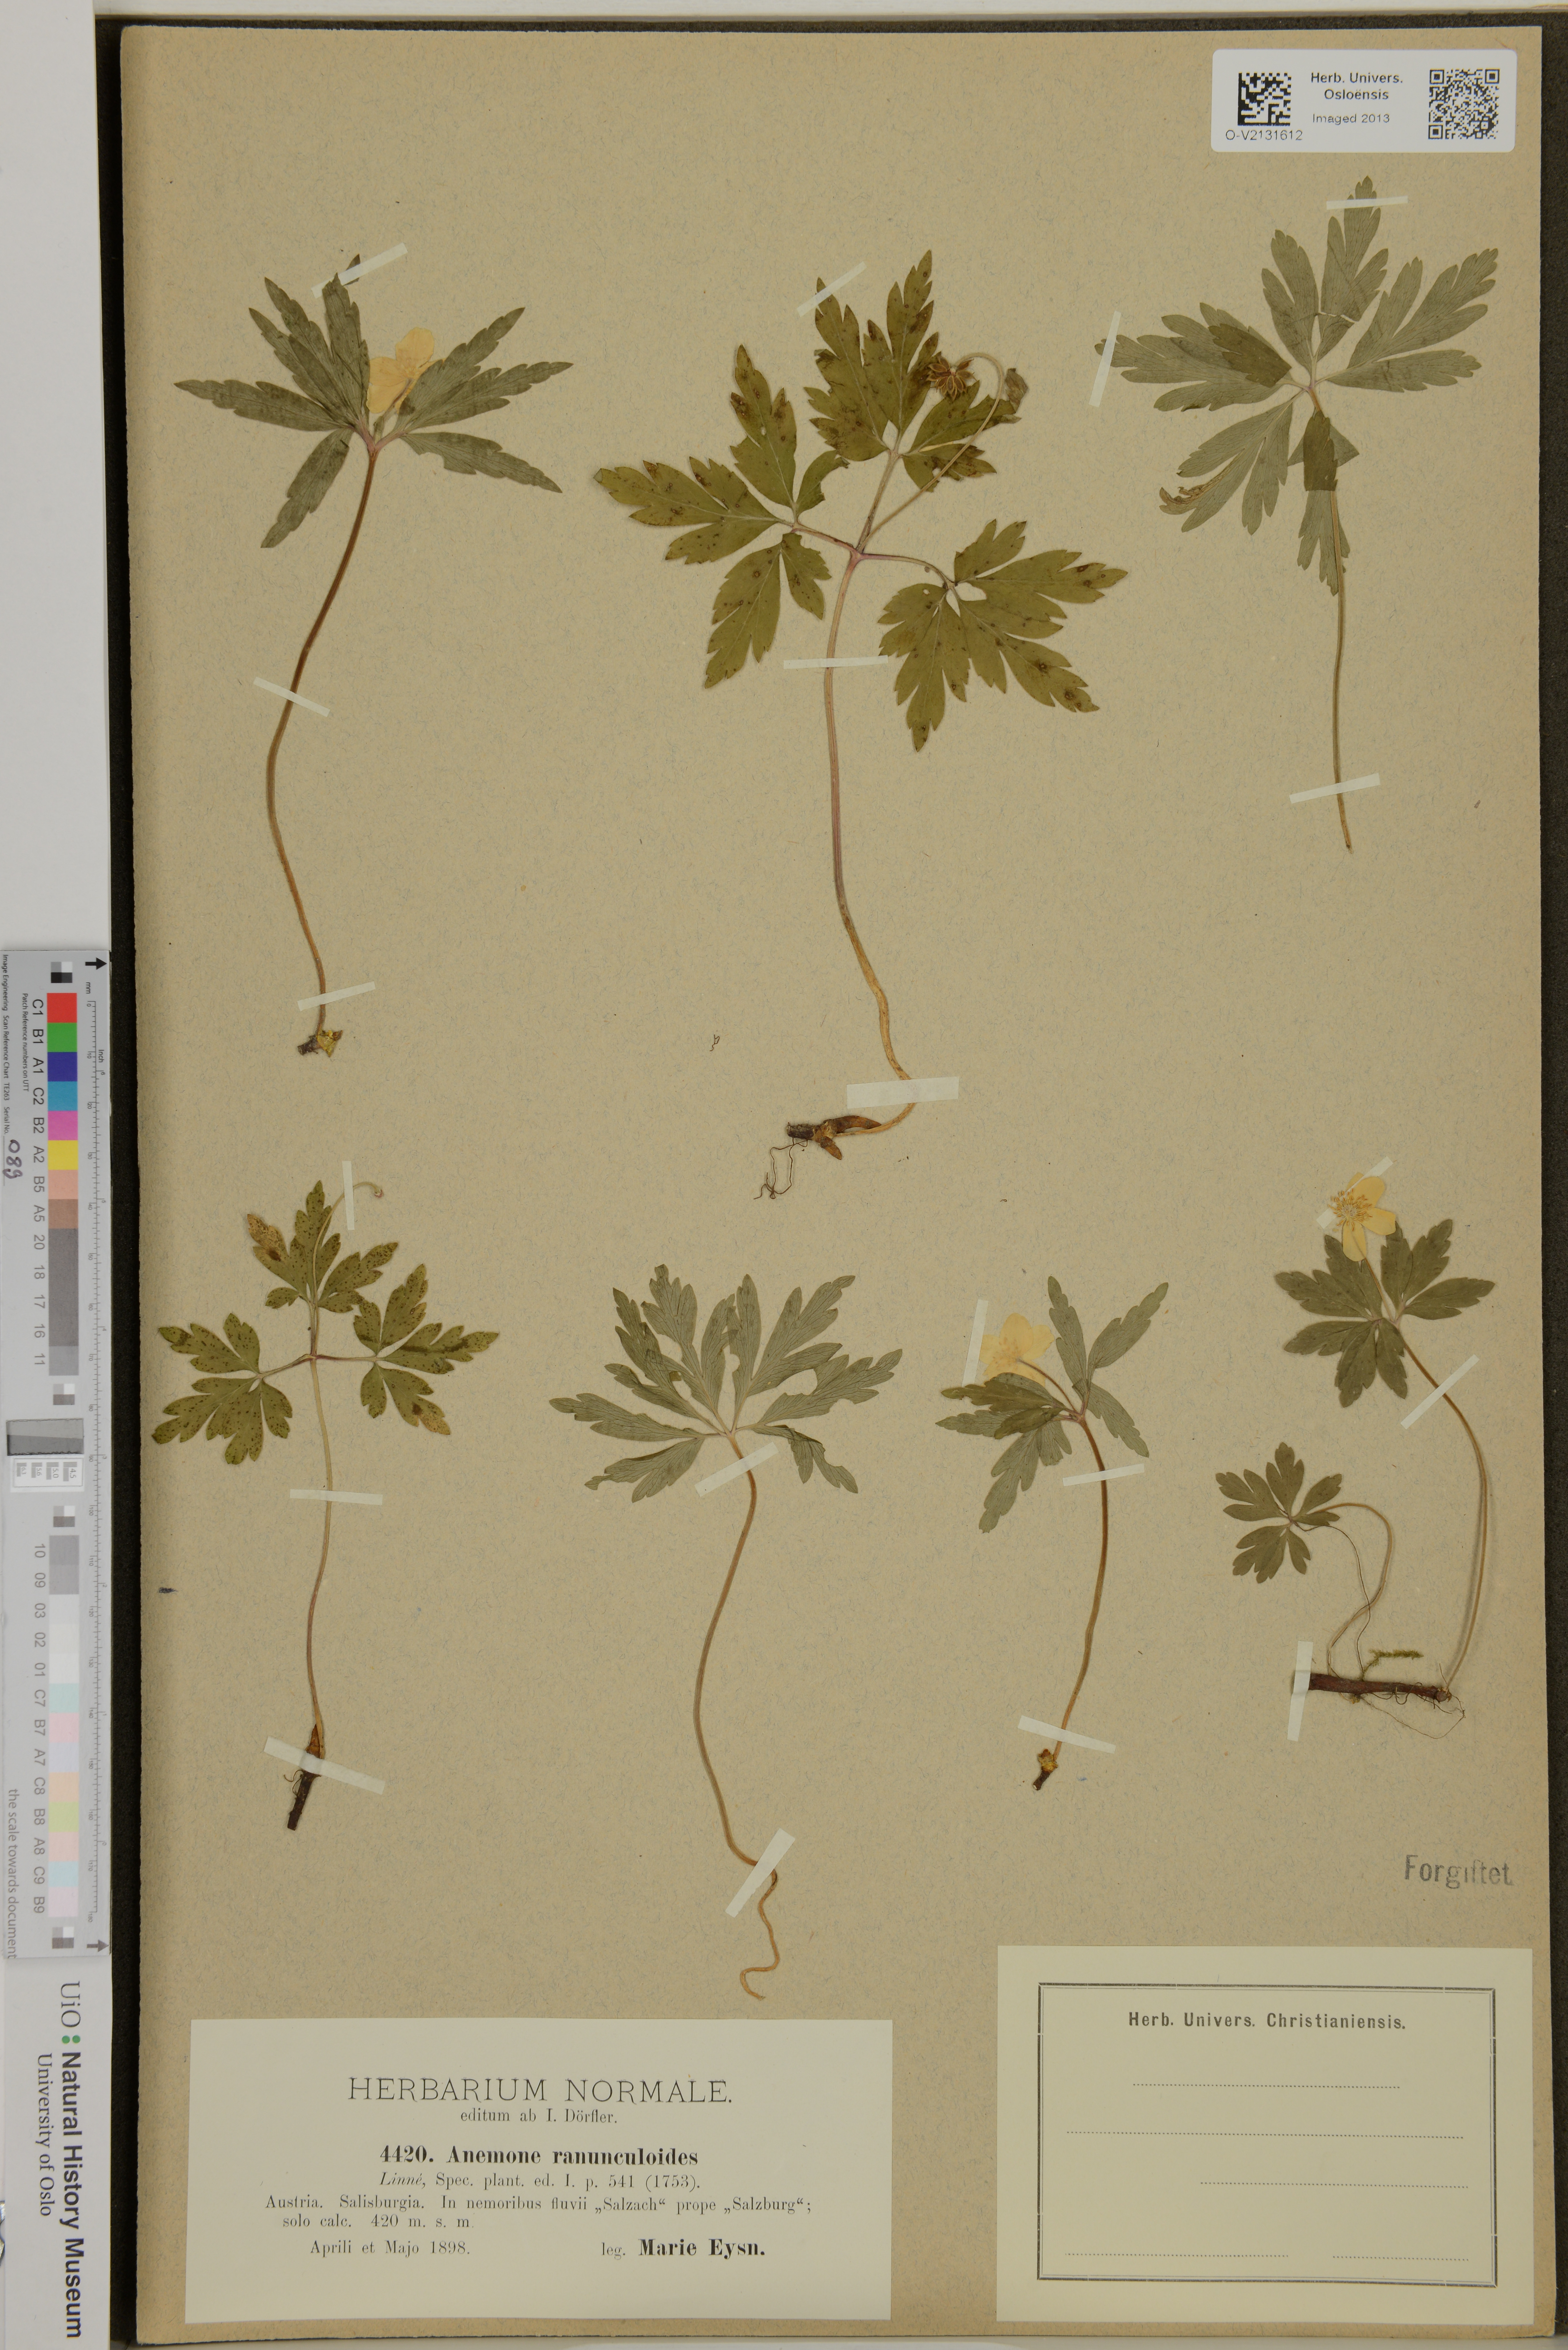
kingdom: Plantae
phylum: Tracheophyta
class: Magnoliopsida
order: Ranunculales
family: Ranunculaceae
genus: Anemone
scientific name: Anemone ranunculoides
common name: Yellow anemone
